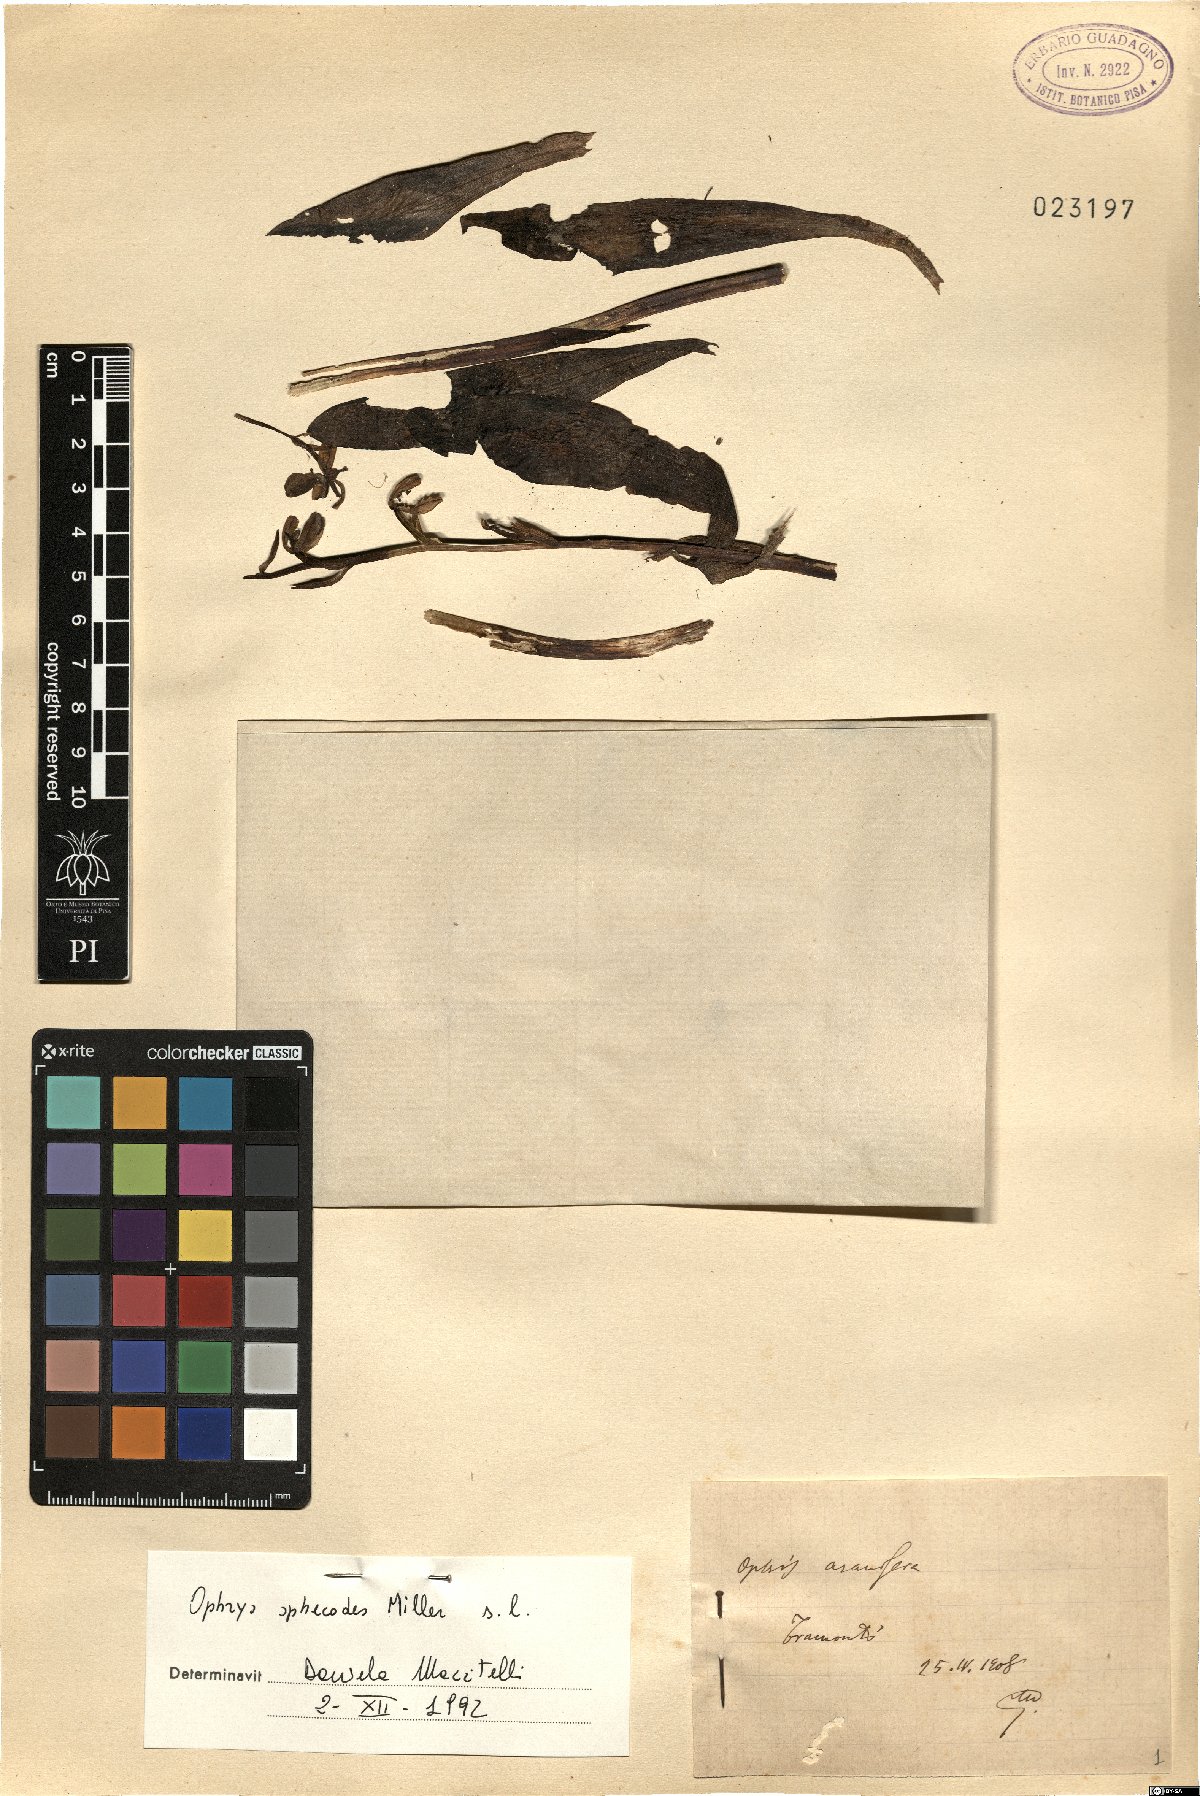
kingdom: Plantae
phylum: Tracheophyta
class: Liliopsida
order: Asparagales
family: Orchidaceae
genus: Ophrys
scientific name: Ophrys sphegodes
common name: Early spider-orchid
